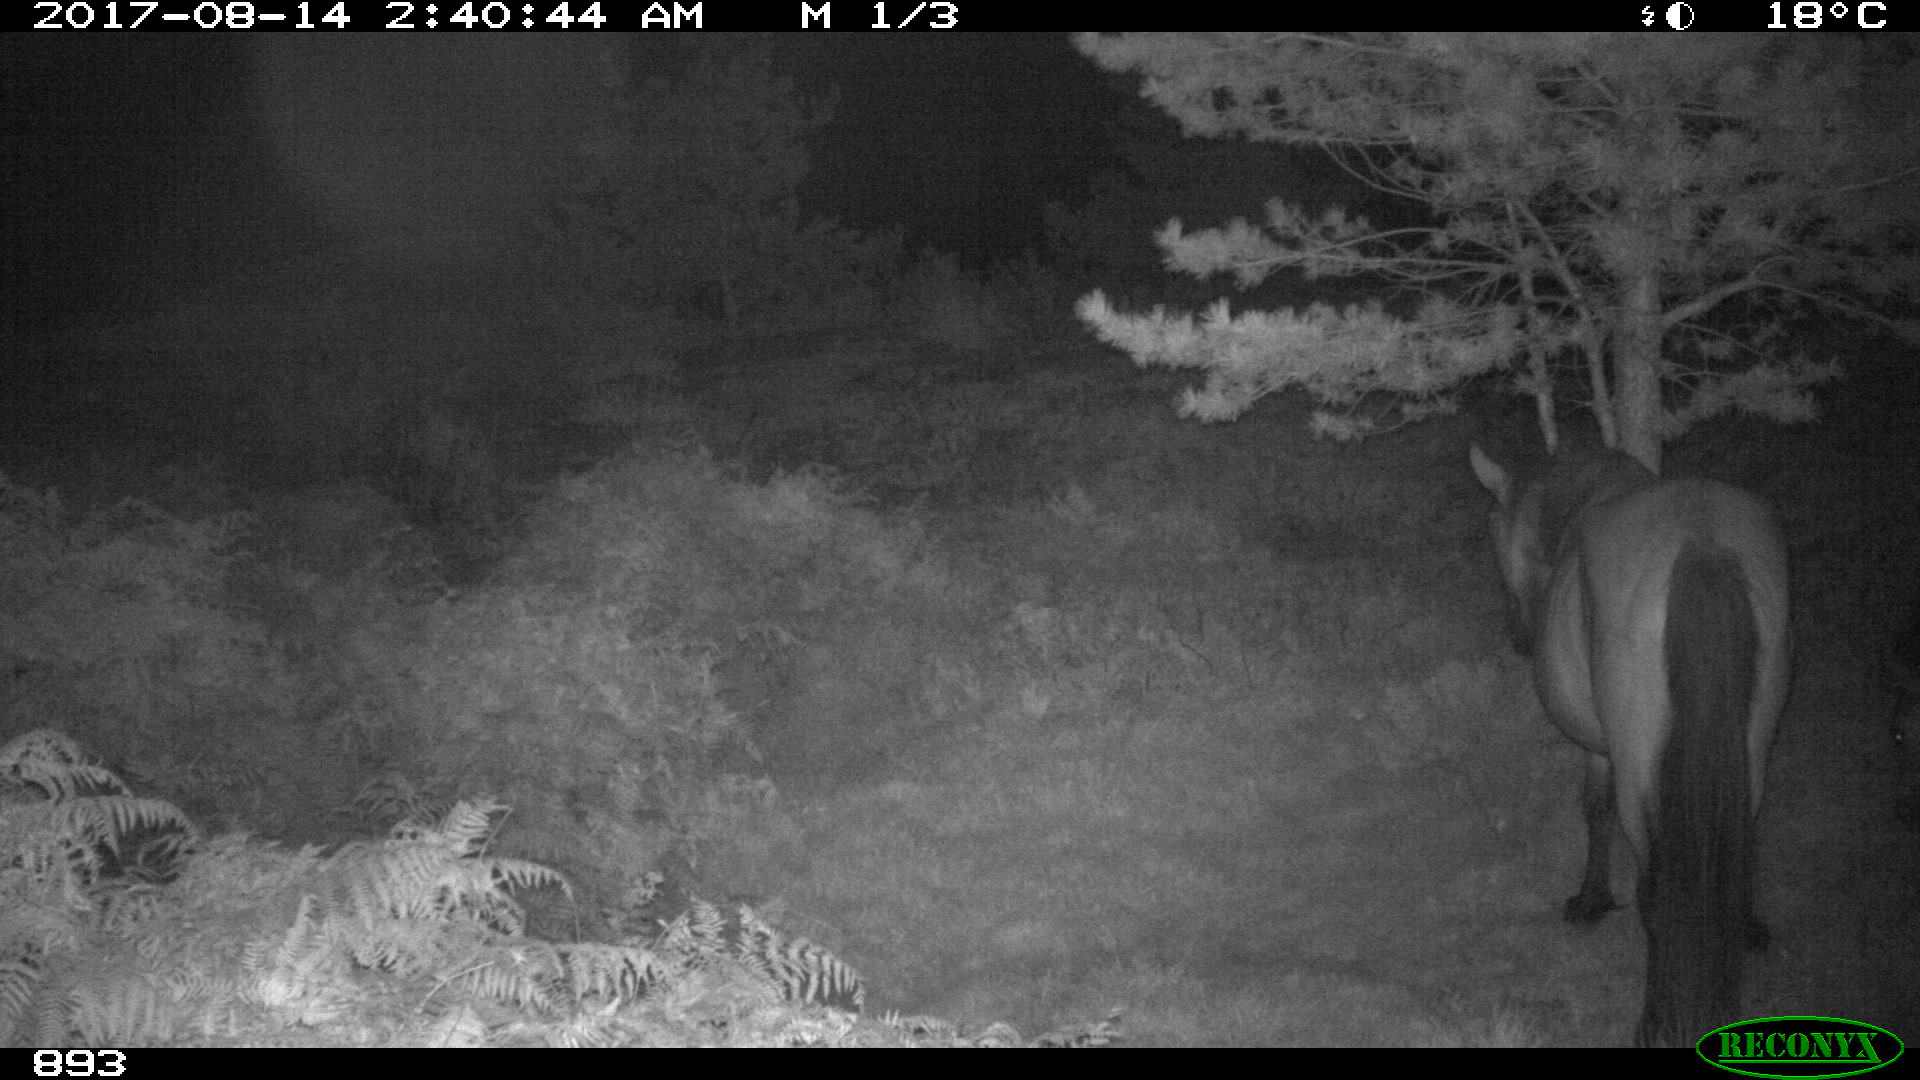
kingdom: Animalia
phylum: Chordata
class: Mammalia
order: Perissodactyla
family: Equidae
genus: Equus
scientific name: Equus caballus
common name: Horse
